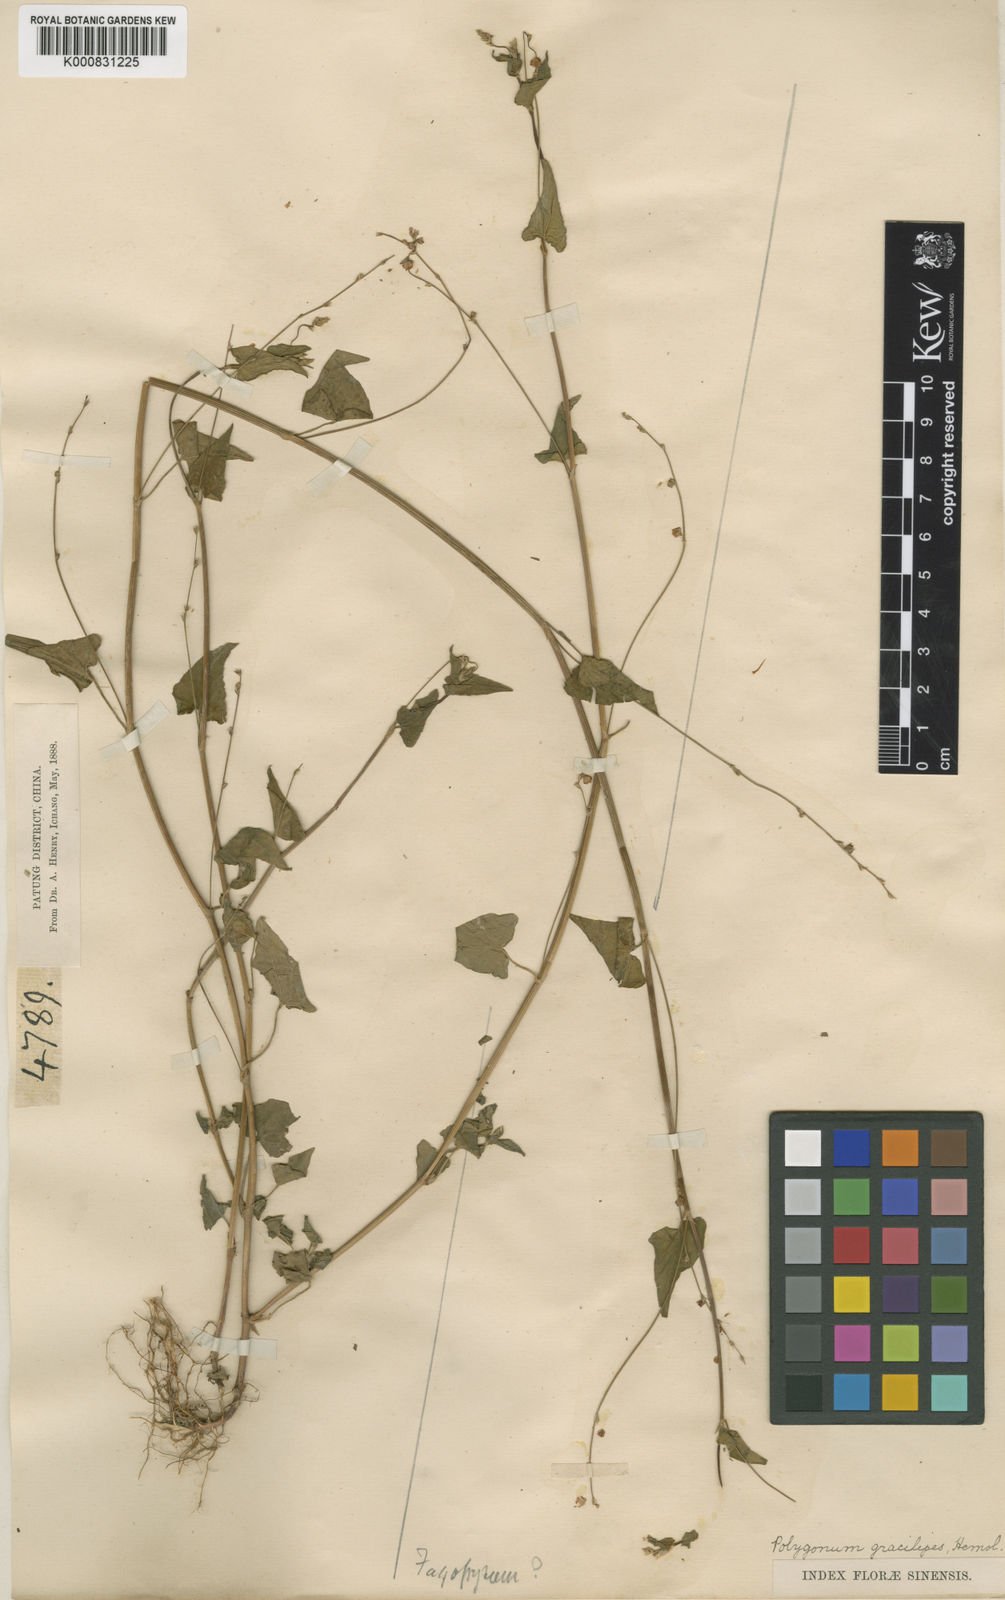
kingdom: Plantae
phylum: Tracheophyta
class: Magnoliopsida
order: Caryophyllales
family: Polygonaceae
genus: Fagopyrum
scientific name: Fagopyrum gracilipes
